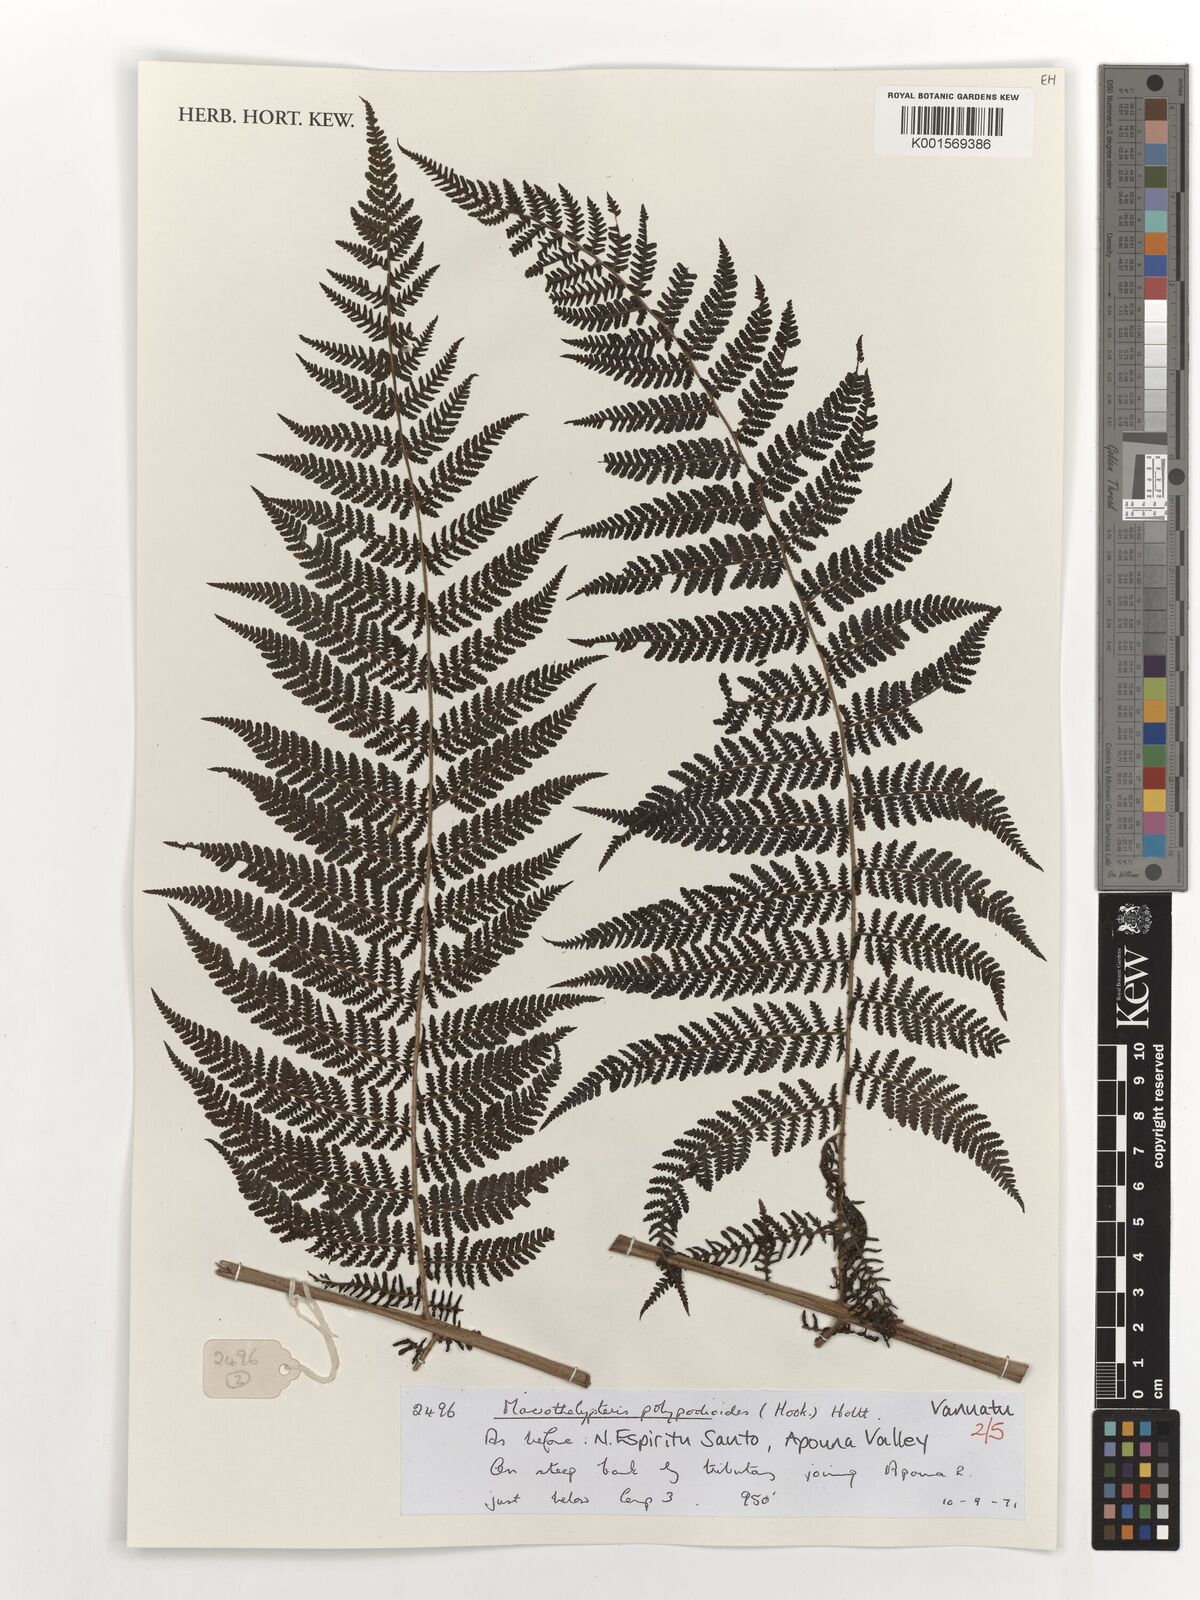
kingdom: Plantae
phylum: Tracheophyta
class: Polypodiopsida
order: Polypodiales
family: Thelypteridaceae
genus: Macrothelypteris
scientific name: Macrothelypteris polypodioides
